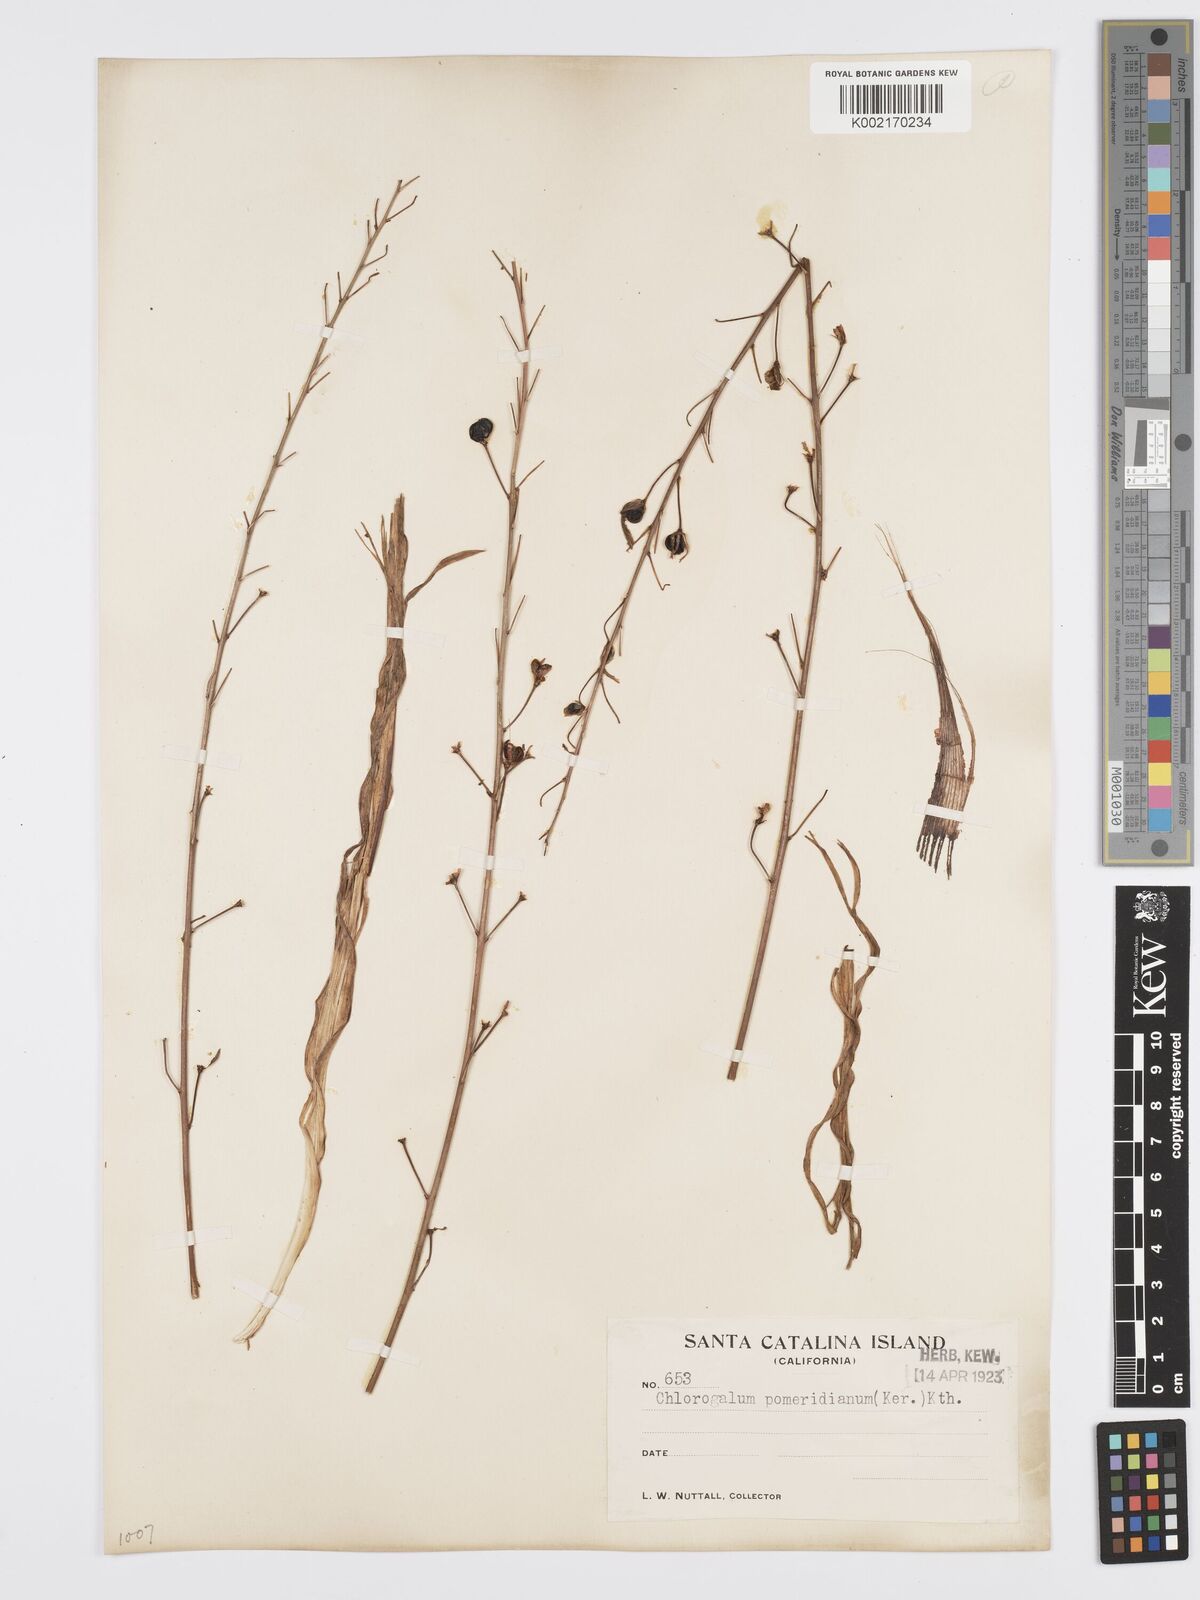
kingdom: Plantae
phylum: Tracheophyta
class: Liliopsida
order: Asparagales
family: Asparagaceae
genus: Chlorogalum
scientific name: Chlorogalum pomeridianum
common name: Amole
